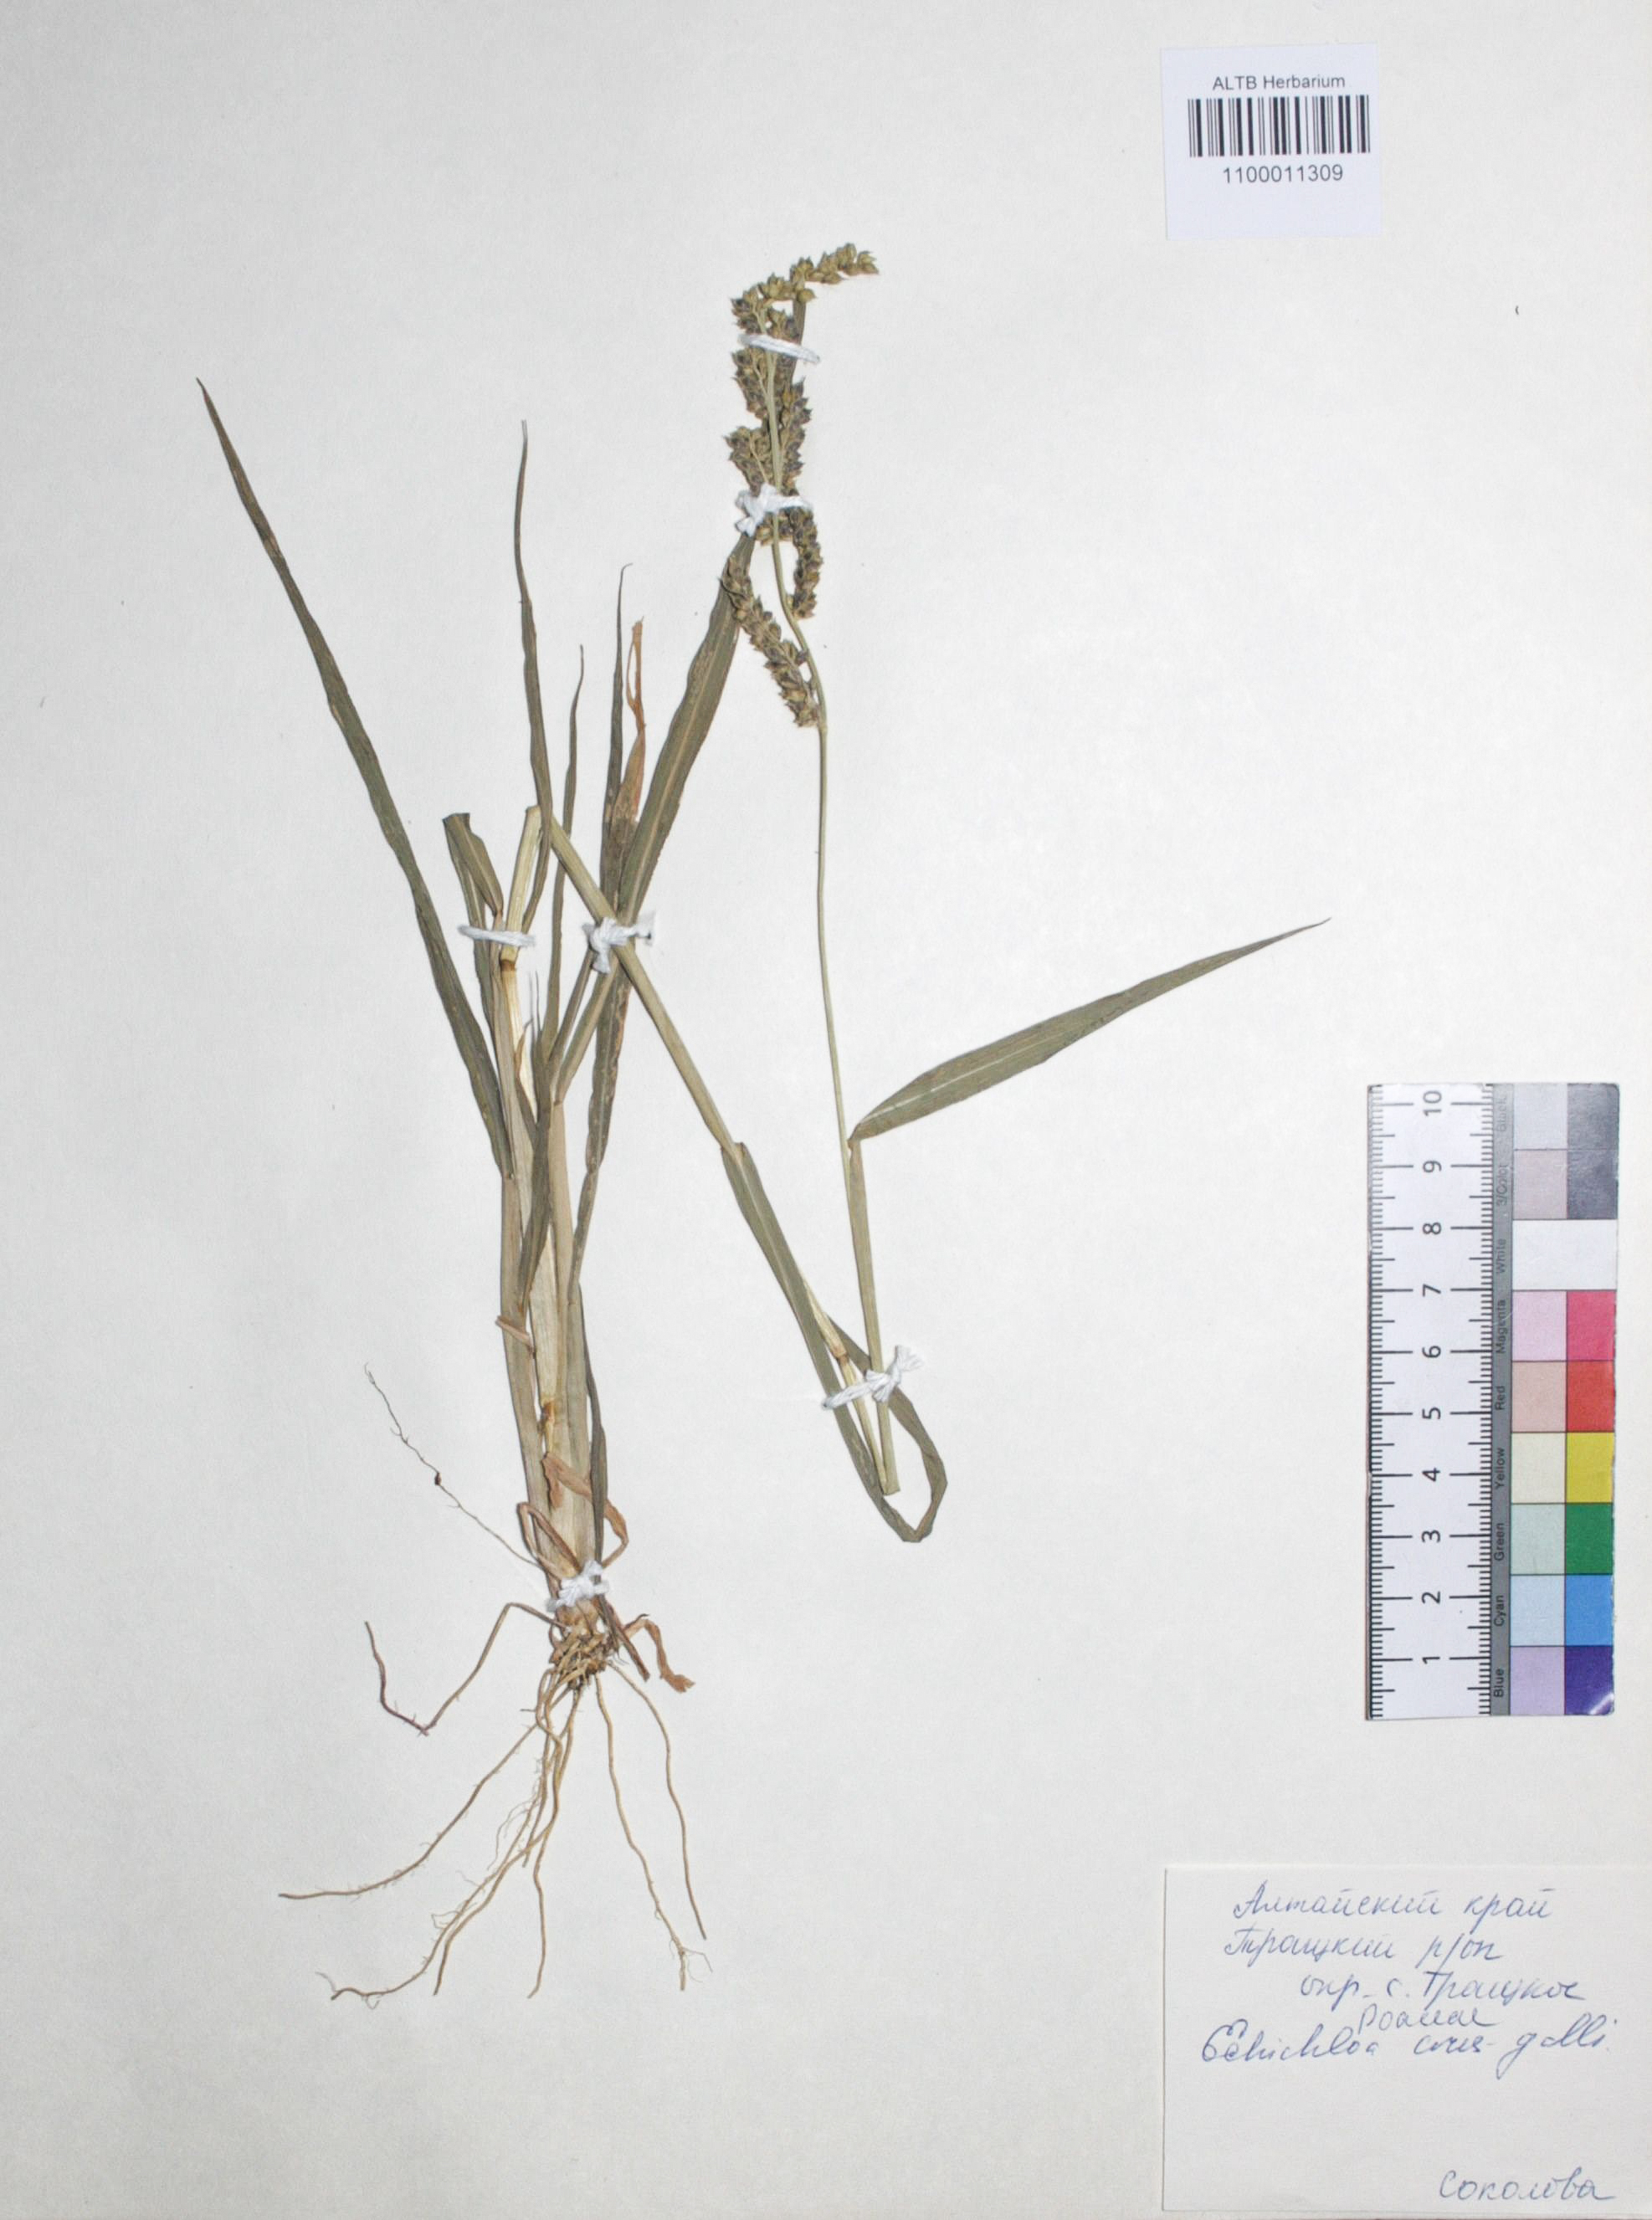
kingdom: Plantae
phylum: Tracheophyta
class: Liliopsida
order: Poales
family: Poaceae
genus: Echinochloa
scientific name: Echinochloa crus-galli
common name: Cockspur
